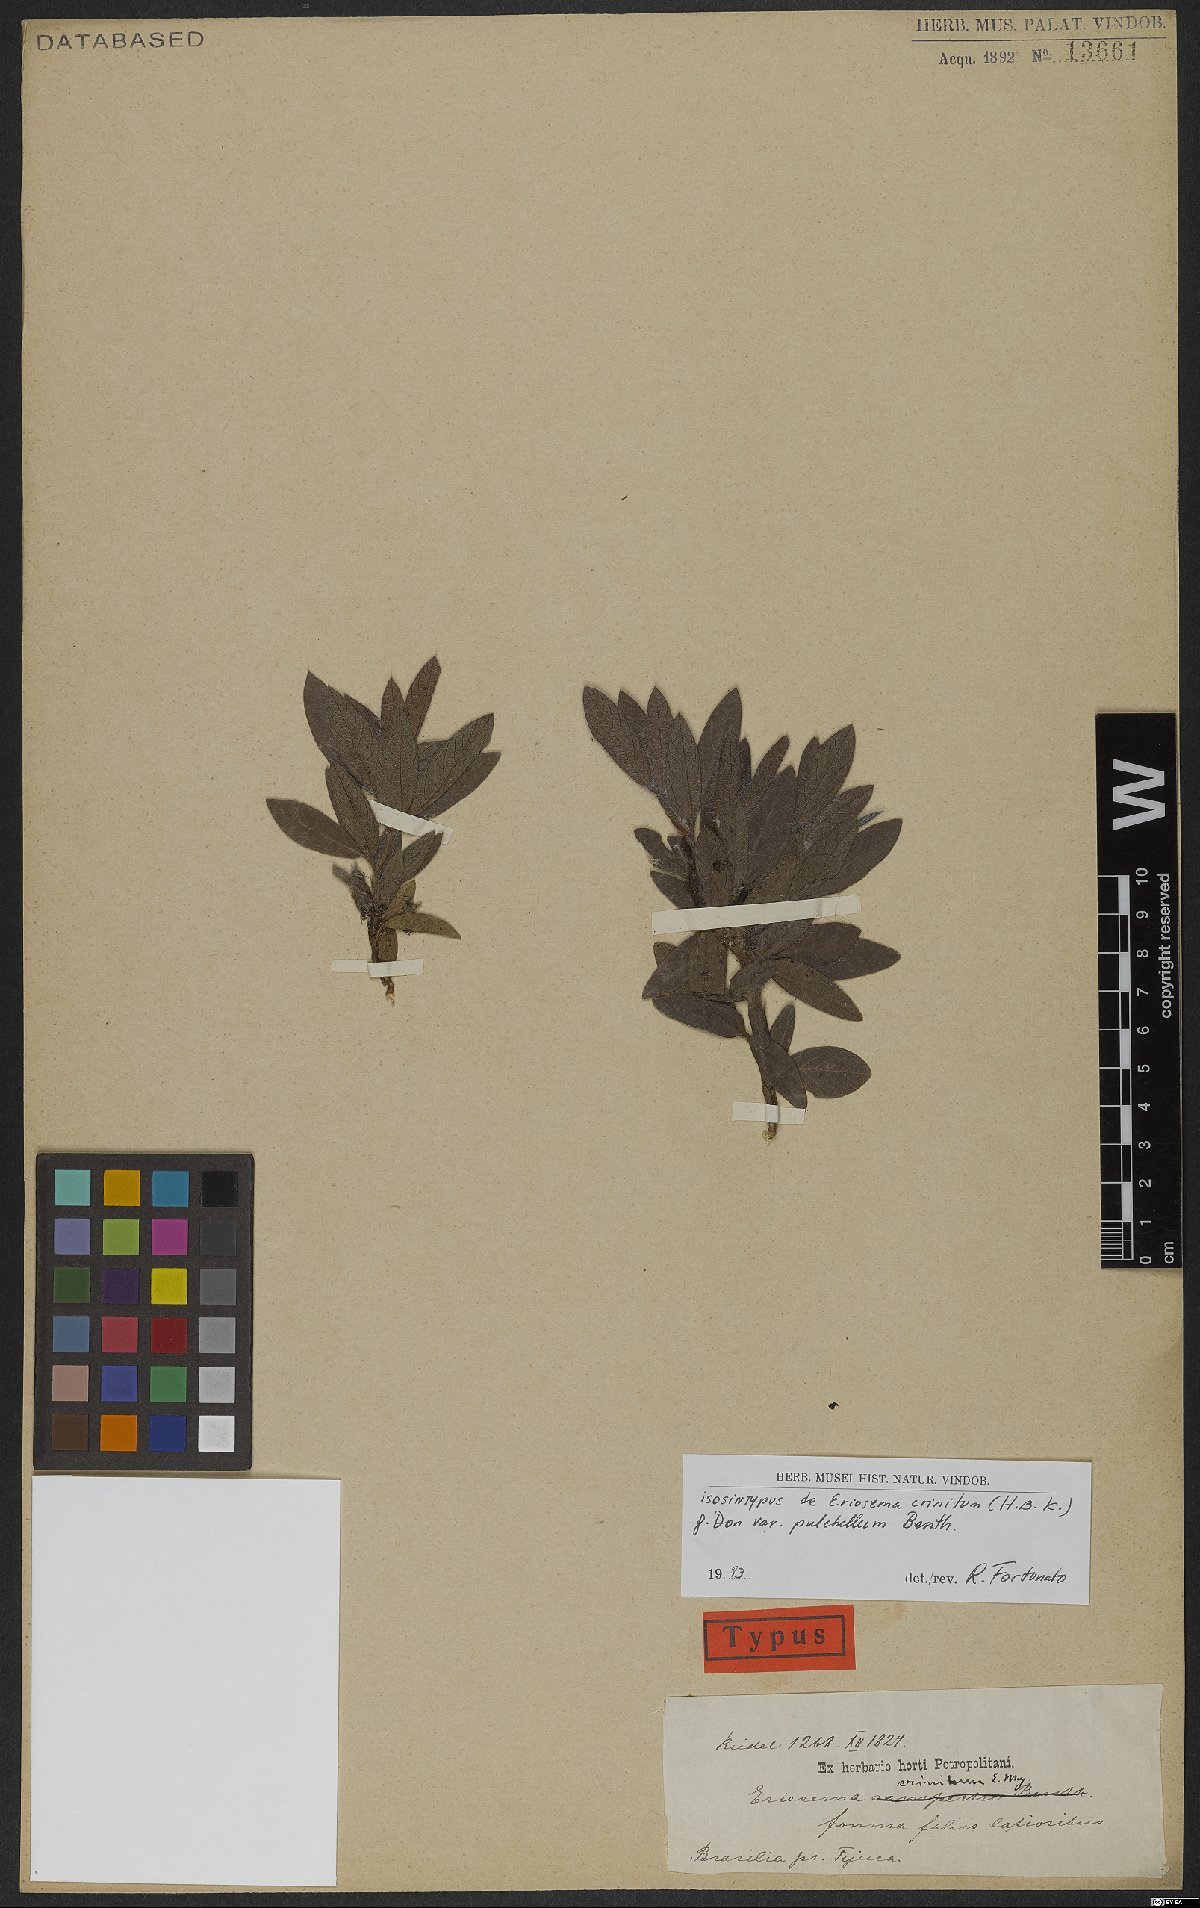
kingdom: Plantae
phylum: Tracheophyta
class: Magnoliopsida
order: Fabales
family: Fabaceae
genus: Eriosema
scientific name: Eriosema crinitum
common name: Sand pea
